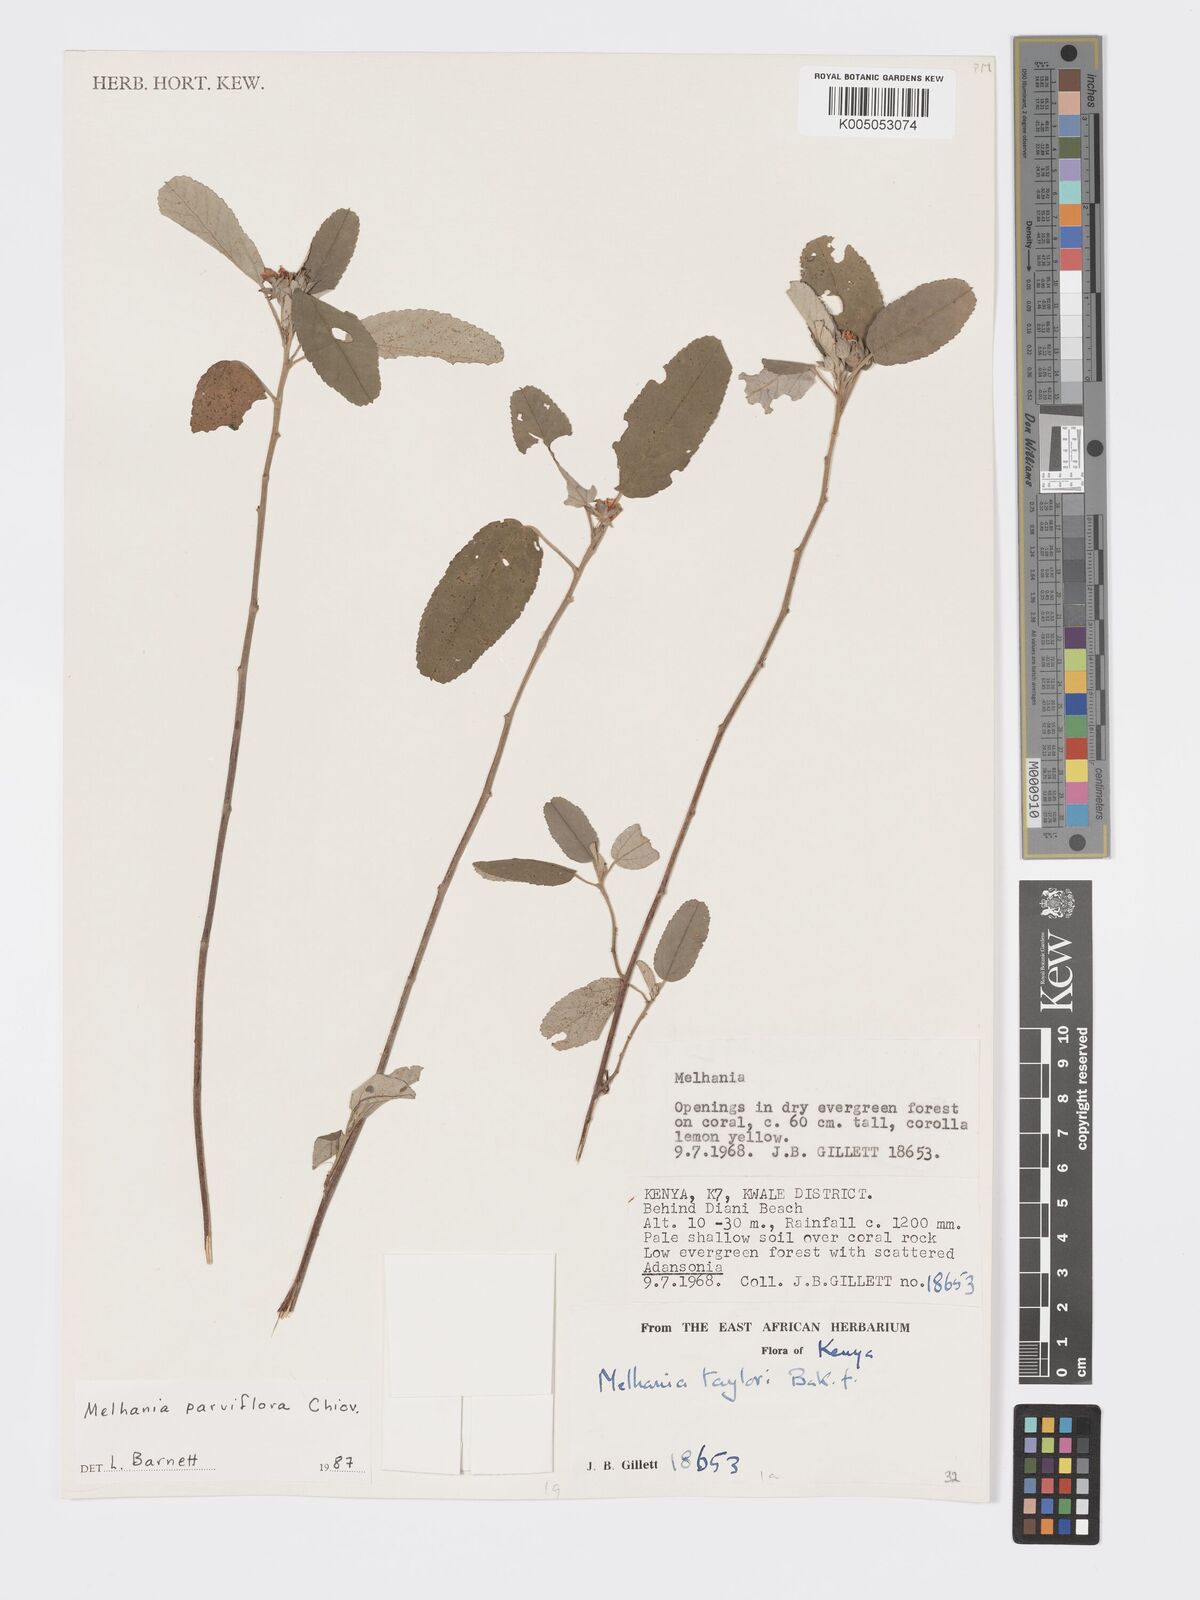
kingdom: Plantae
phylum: Tracheophyta
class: Magnoliopsida
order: Malvales
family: Malvaceae
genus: Melhania
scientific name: Melhania parviflora
